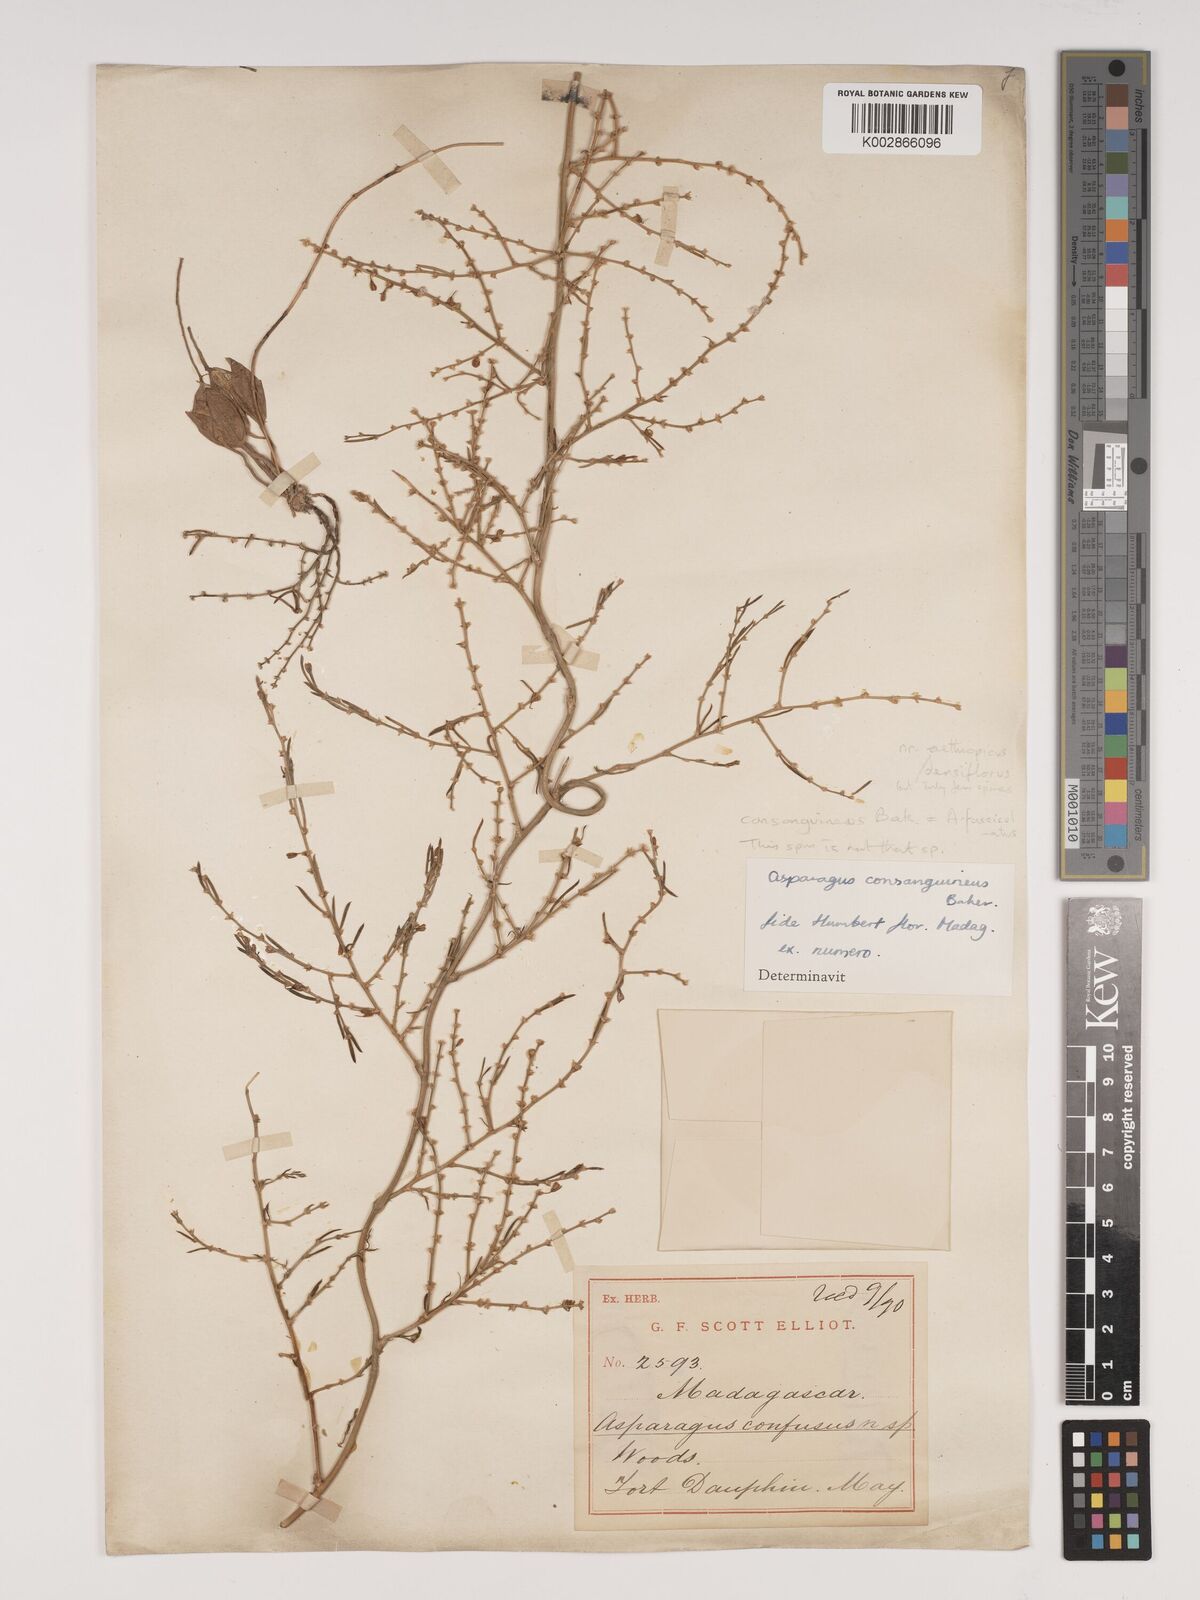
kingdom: Plantae
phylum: Tracheophyta
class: Liliopsida
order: Asparagales
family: Asparagaceae
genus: Asparagus
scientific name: Asparagus fasciculatus
